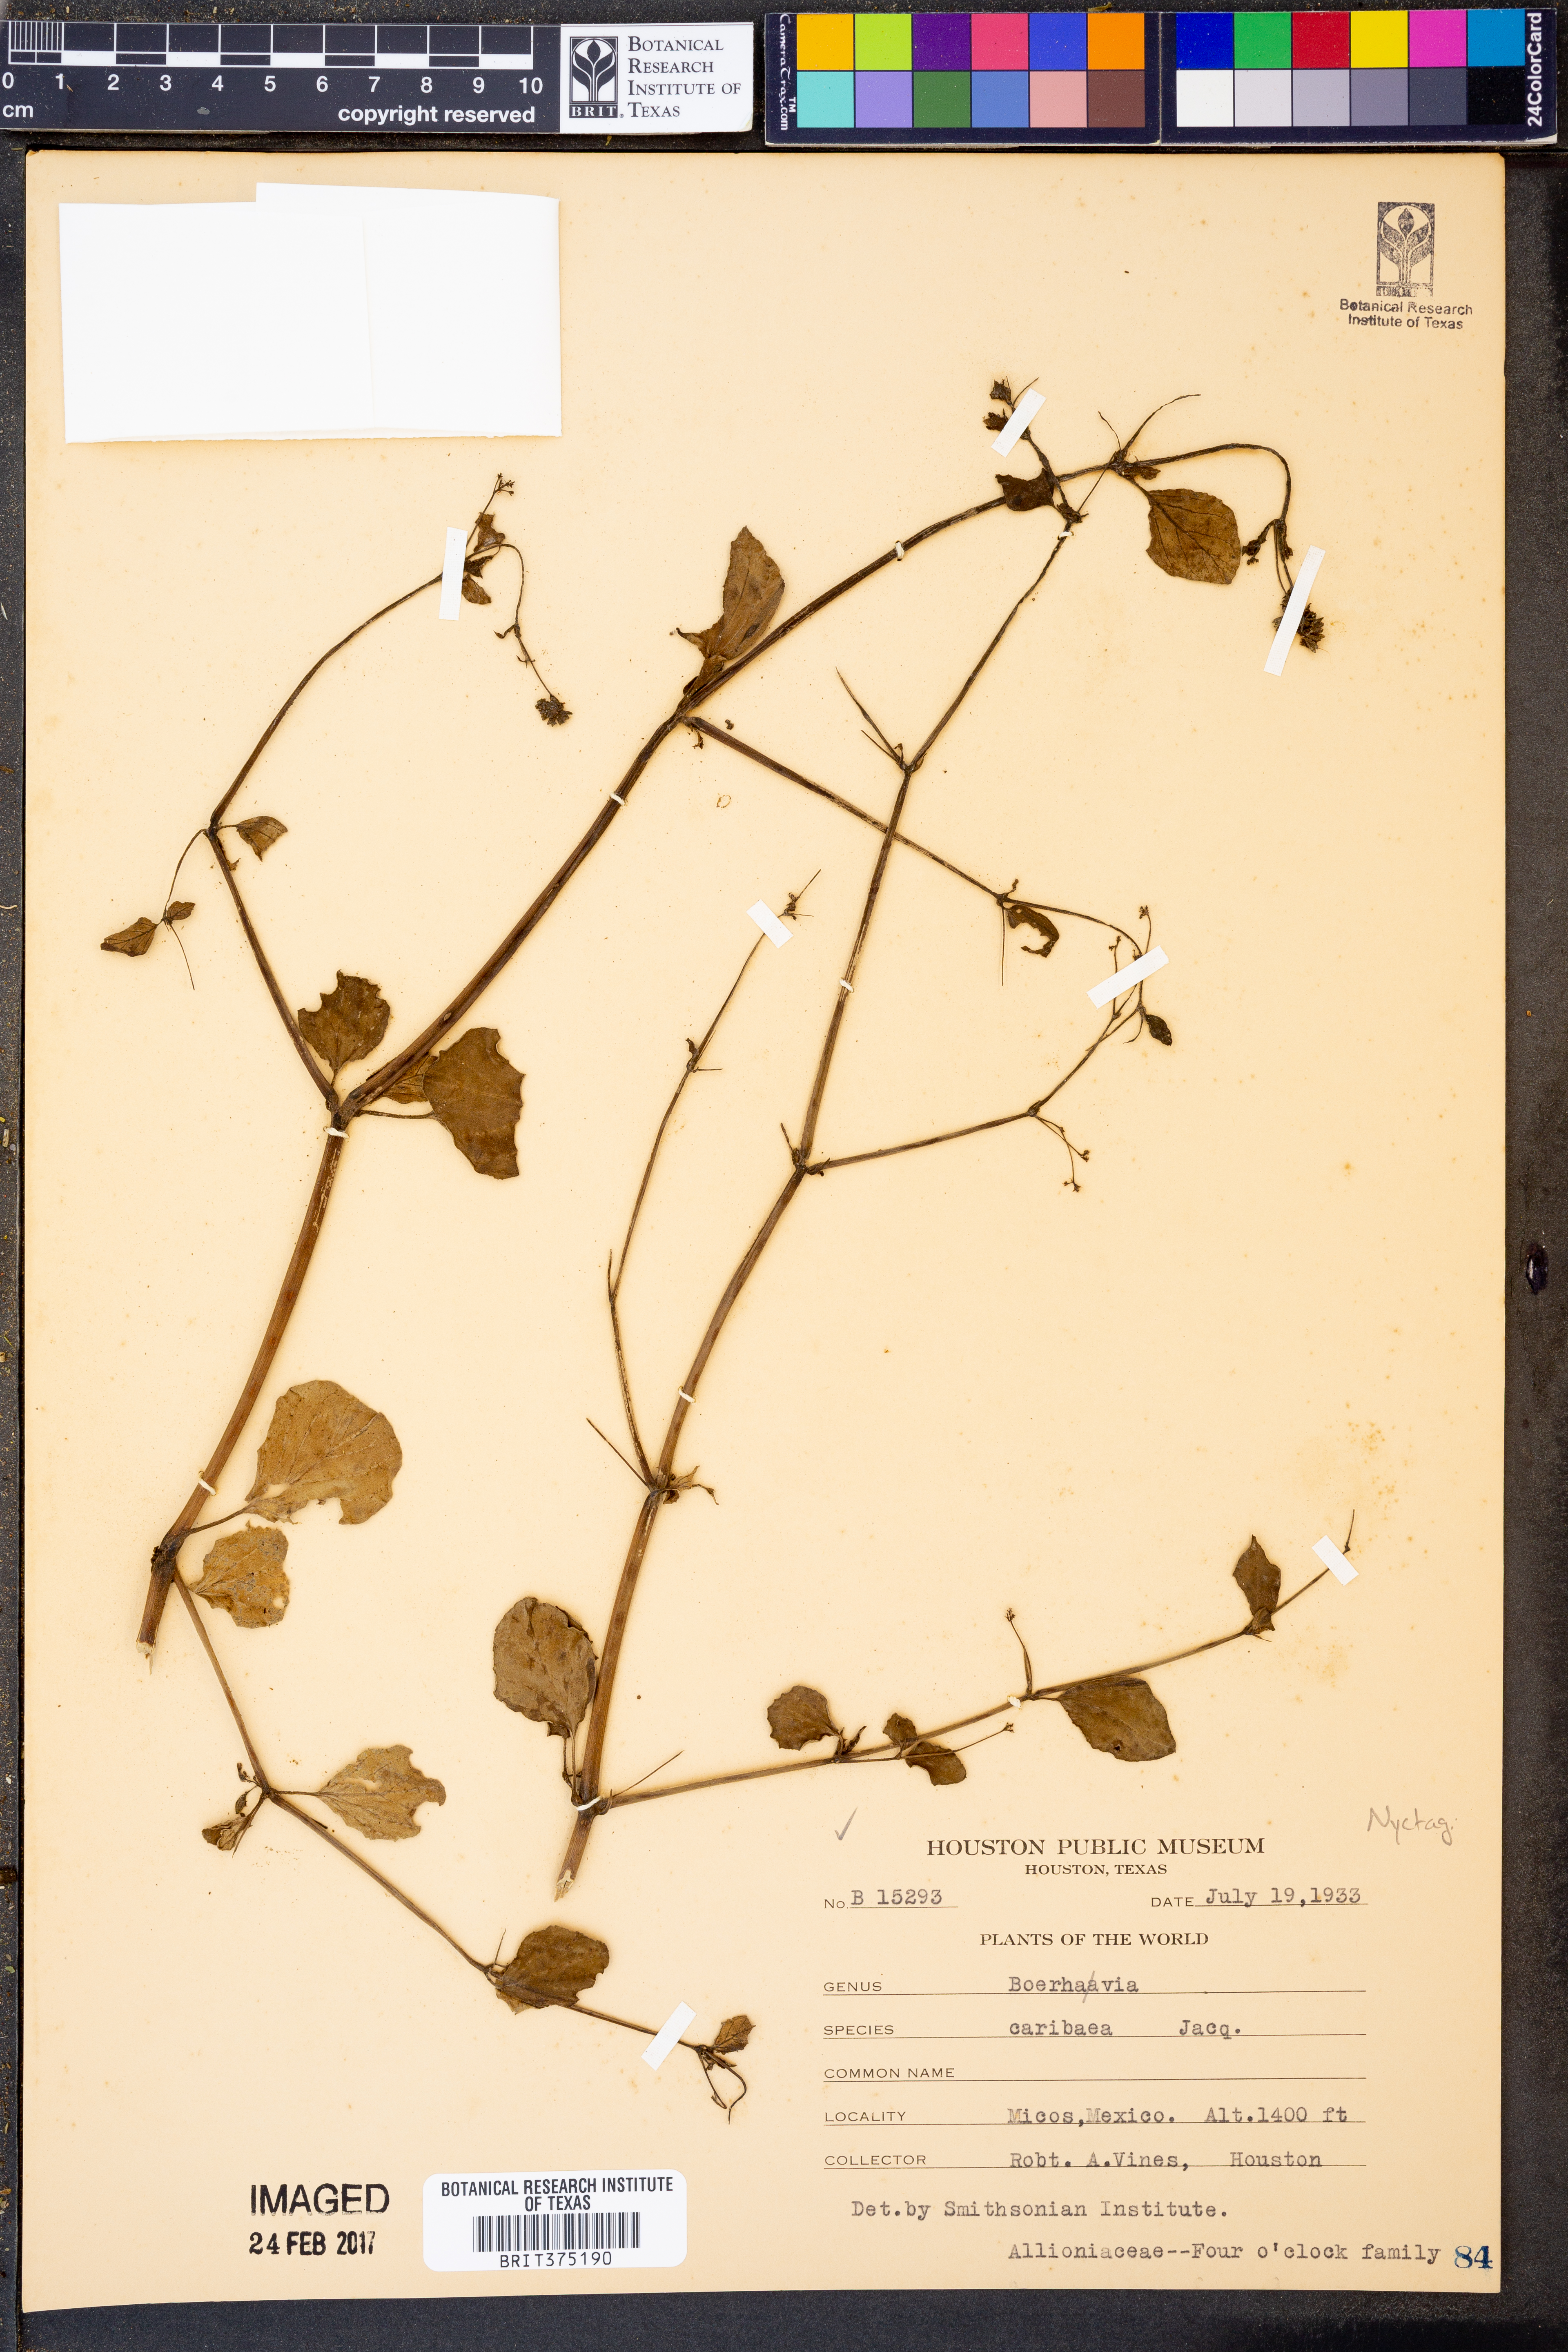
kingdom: Plantae
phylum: Tracheophyta
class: Magnoliopsida
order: Caryophyllales
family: Nyctaginaceae
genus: Boerhavia
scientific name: Boerhavia coccinea
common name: Scarlet spiderling
